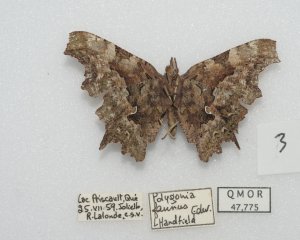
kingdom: Animalia
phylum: Arthropoda
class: Insecta
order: Lepidoptera
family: Nymphalidae
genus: Polygonia
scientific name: Polygonia faunus
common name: Green Comma
